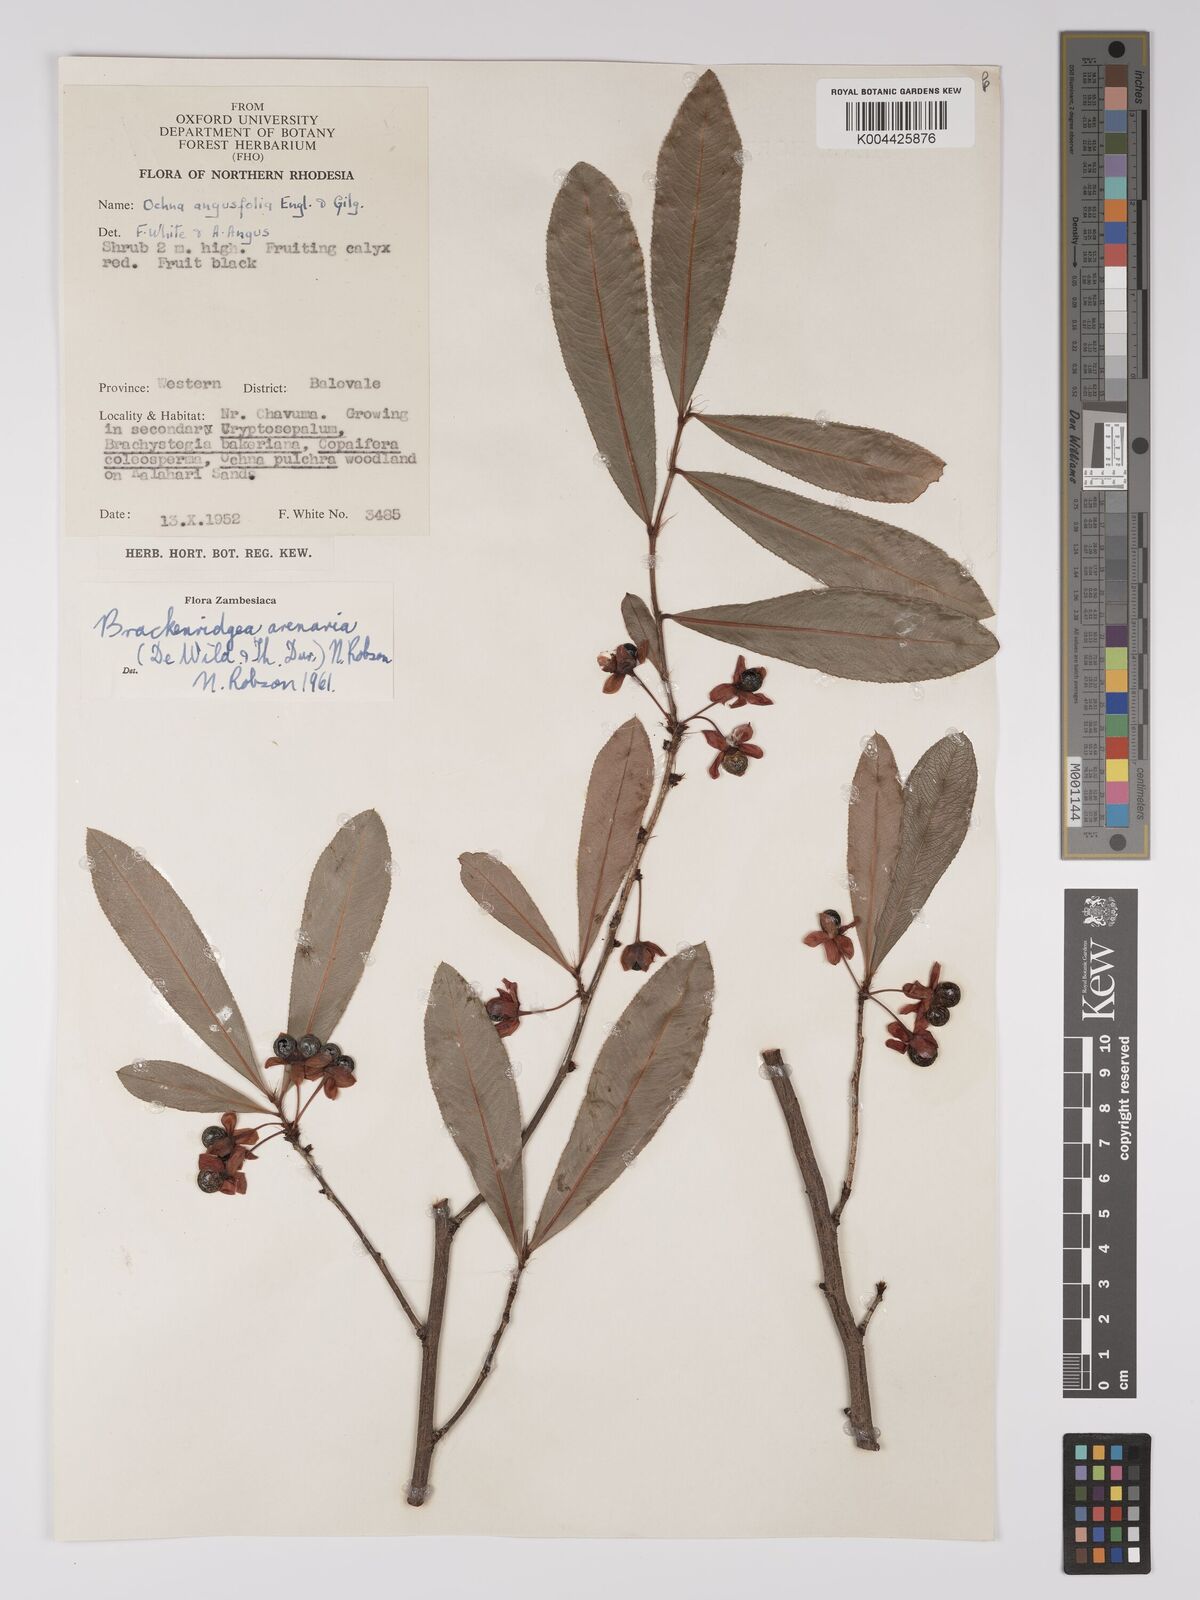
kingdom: Plantae
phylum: Tracheophyta
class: Magnoliopsida
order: Malpighiales
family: Ochnaceae
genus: Ochna
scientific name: Ochna arenaria
